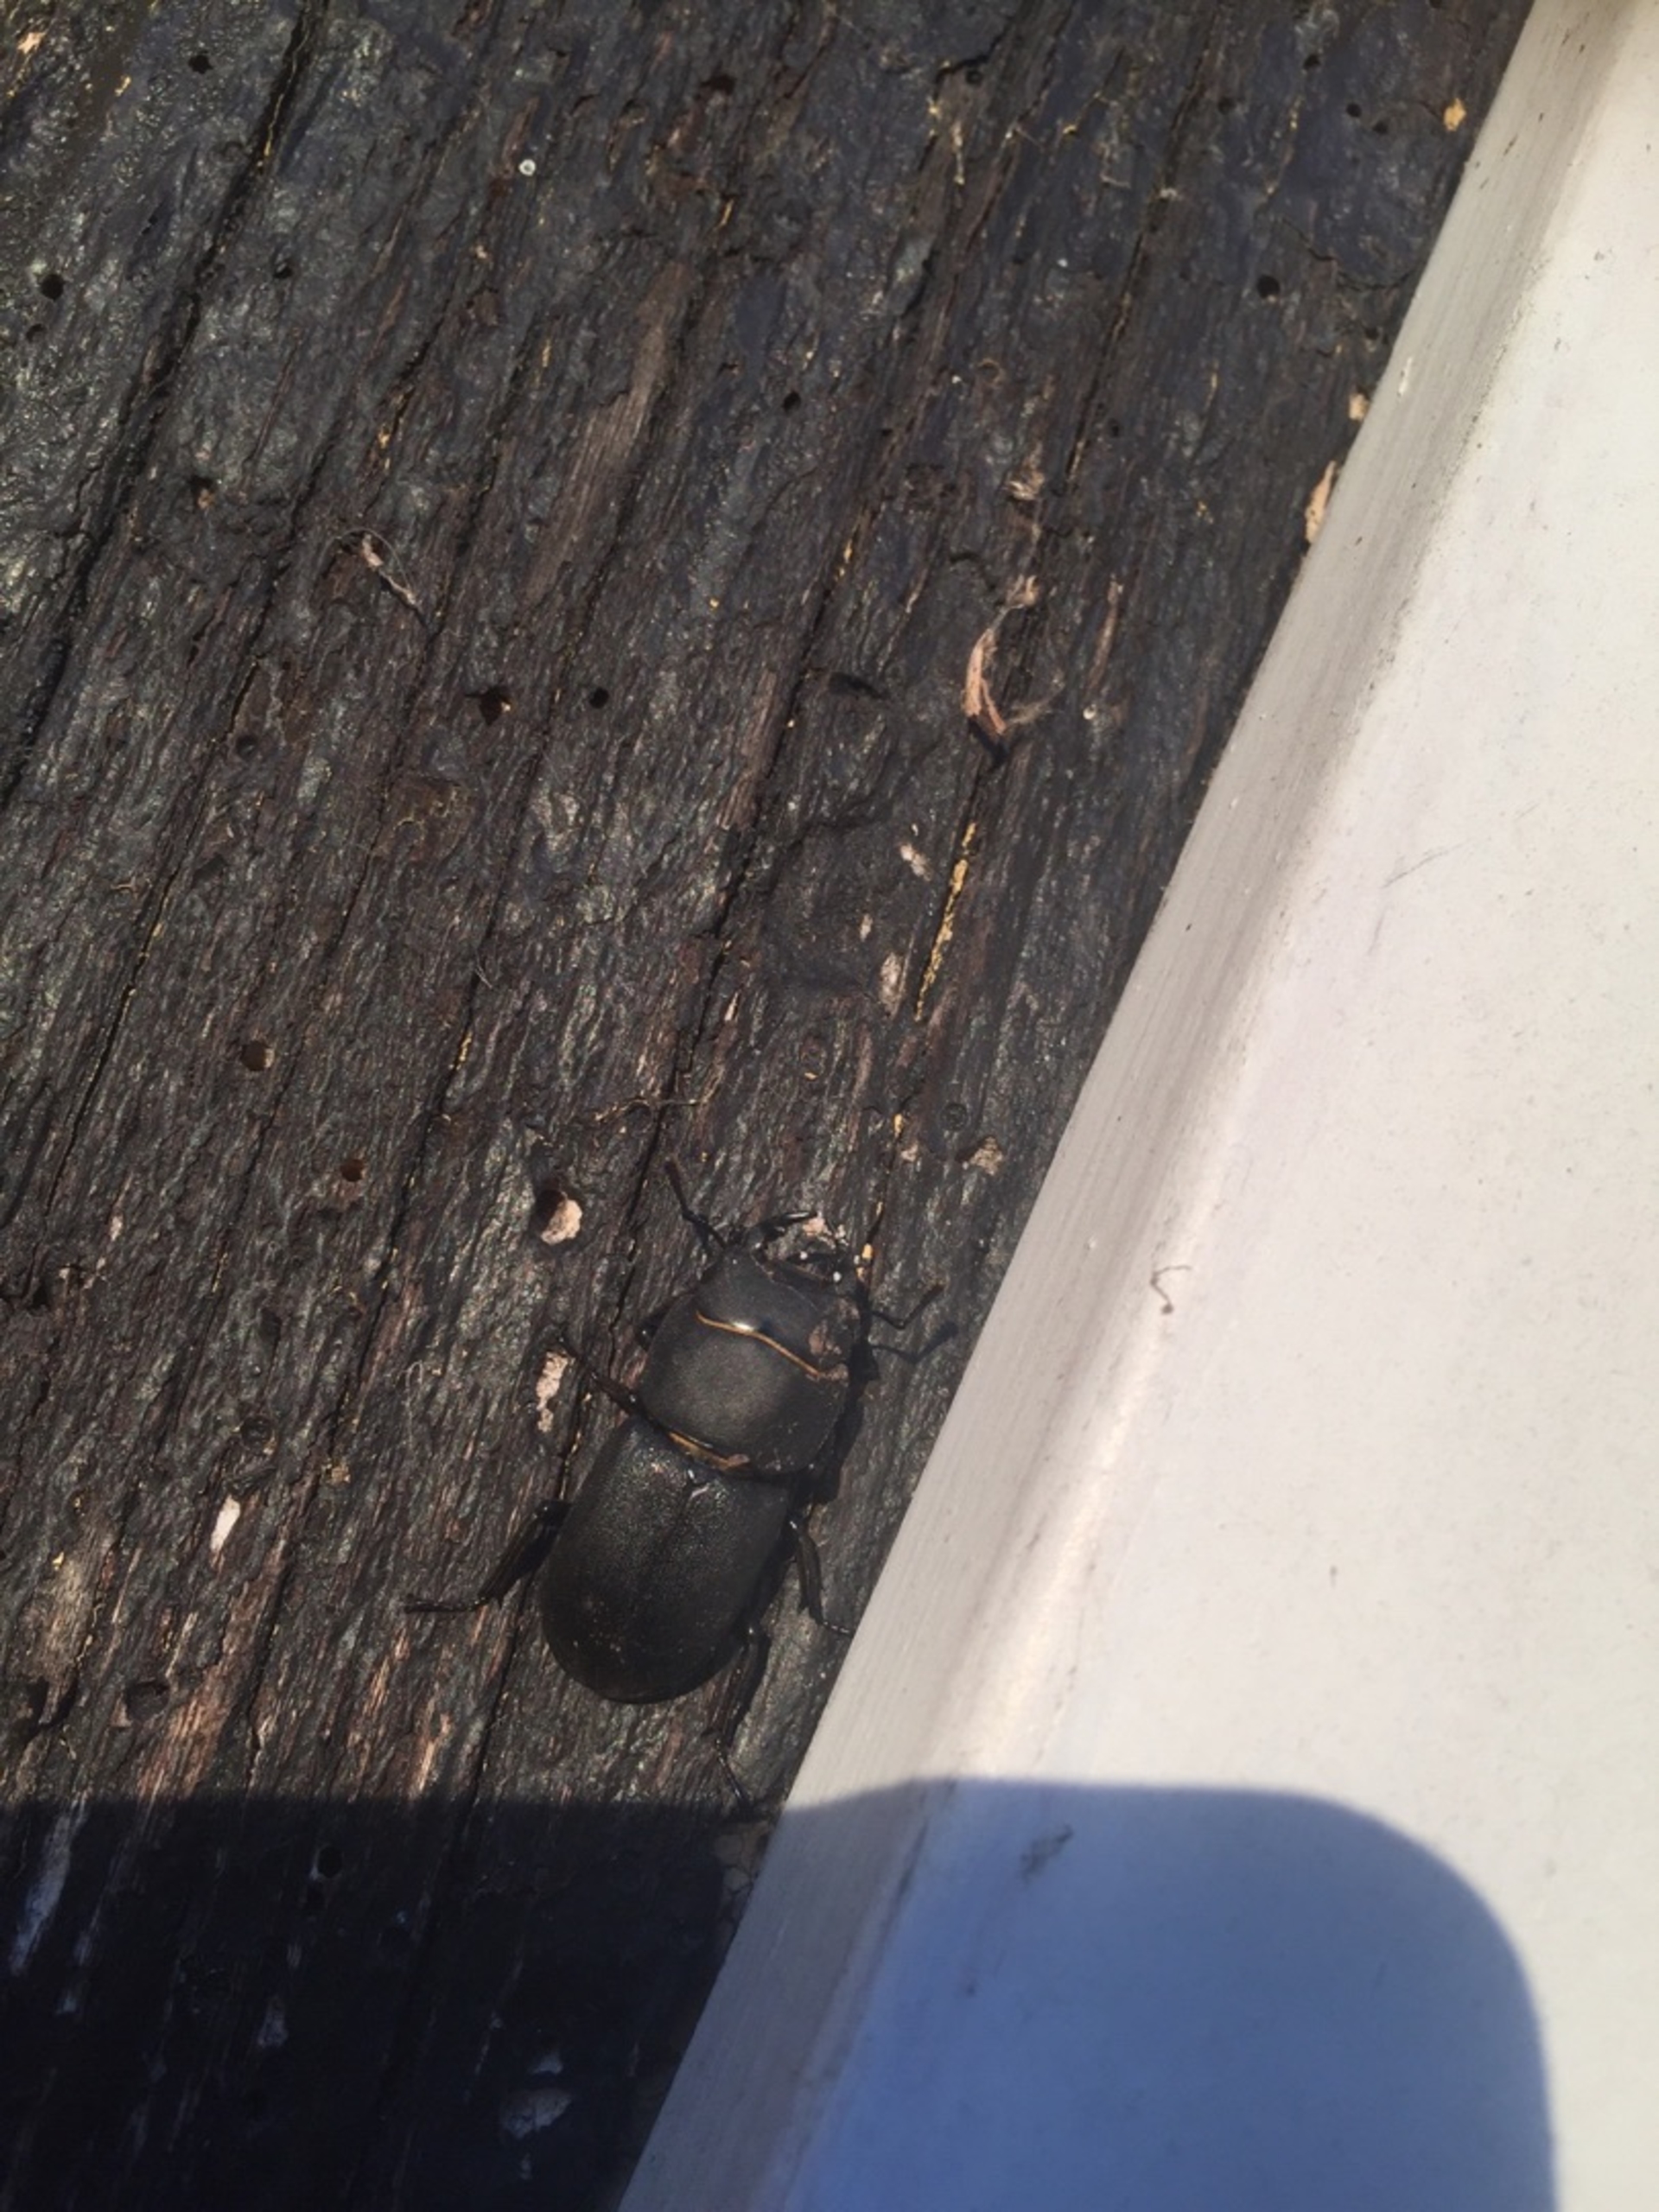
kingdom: Animalia
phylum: Arthropoda
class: Insecta
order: Coleoptera
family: Lucanidae
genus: Dorcus
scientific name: Dorcus parallelipipedus
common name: Bøghjort
